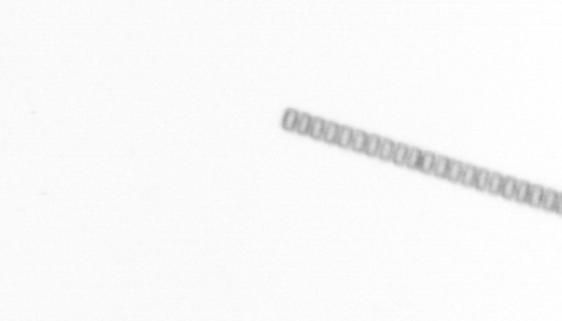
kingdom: Chromista
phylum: Ochrophyta
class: Bacillariophyceae
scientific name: Bacillariophyceae
